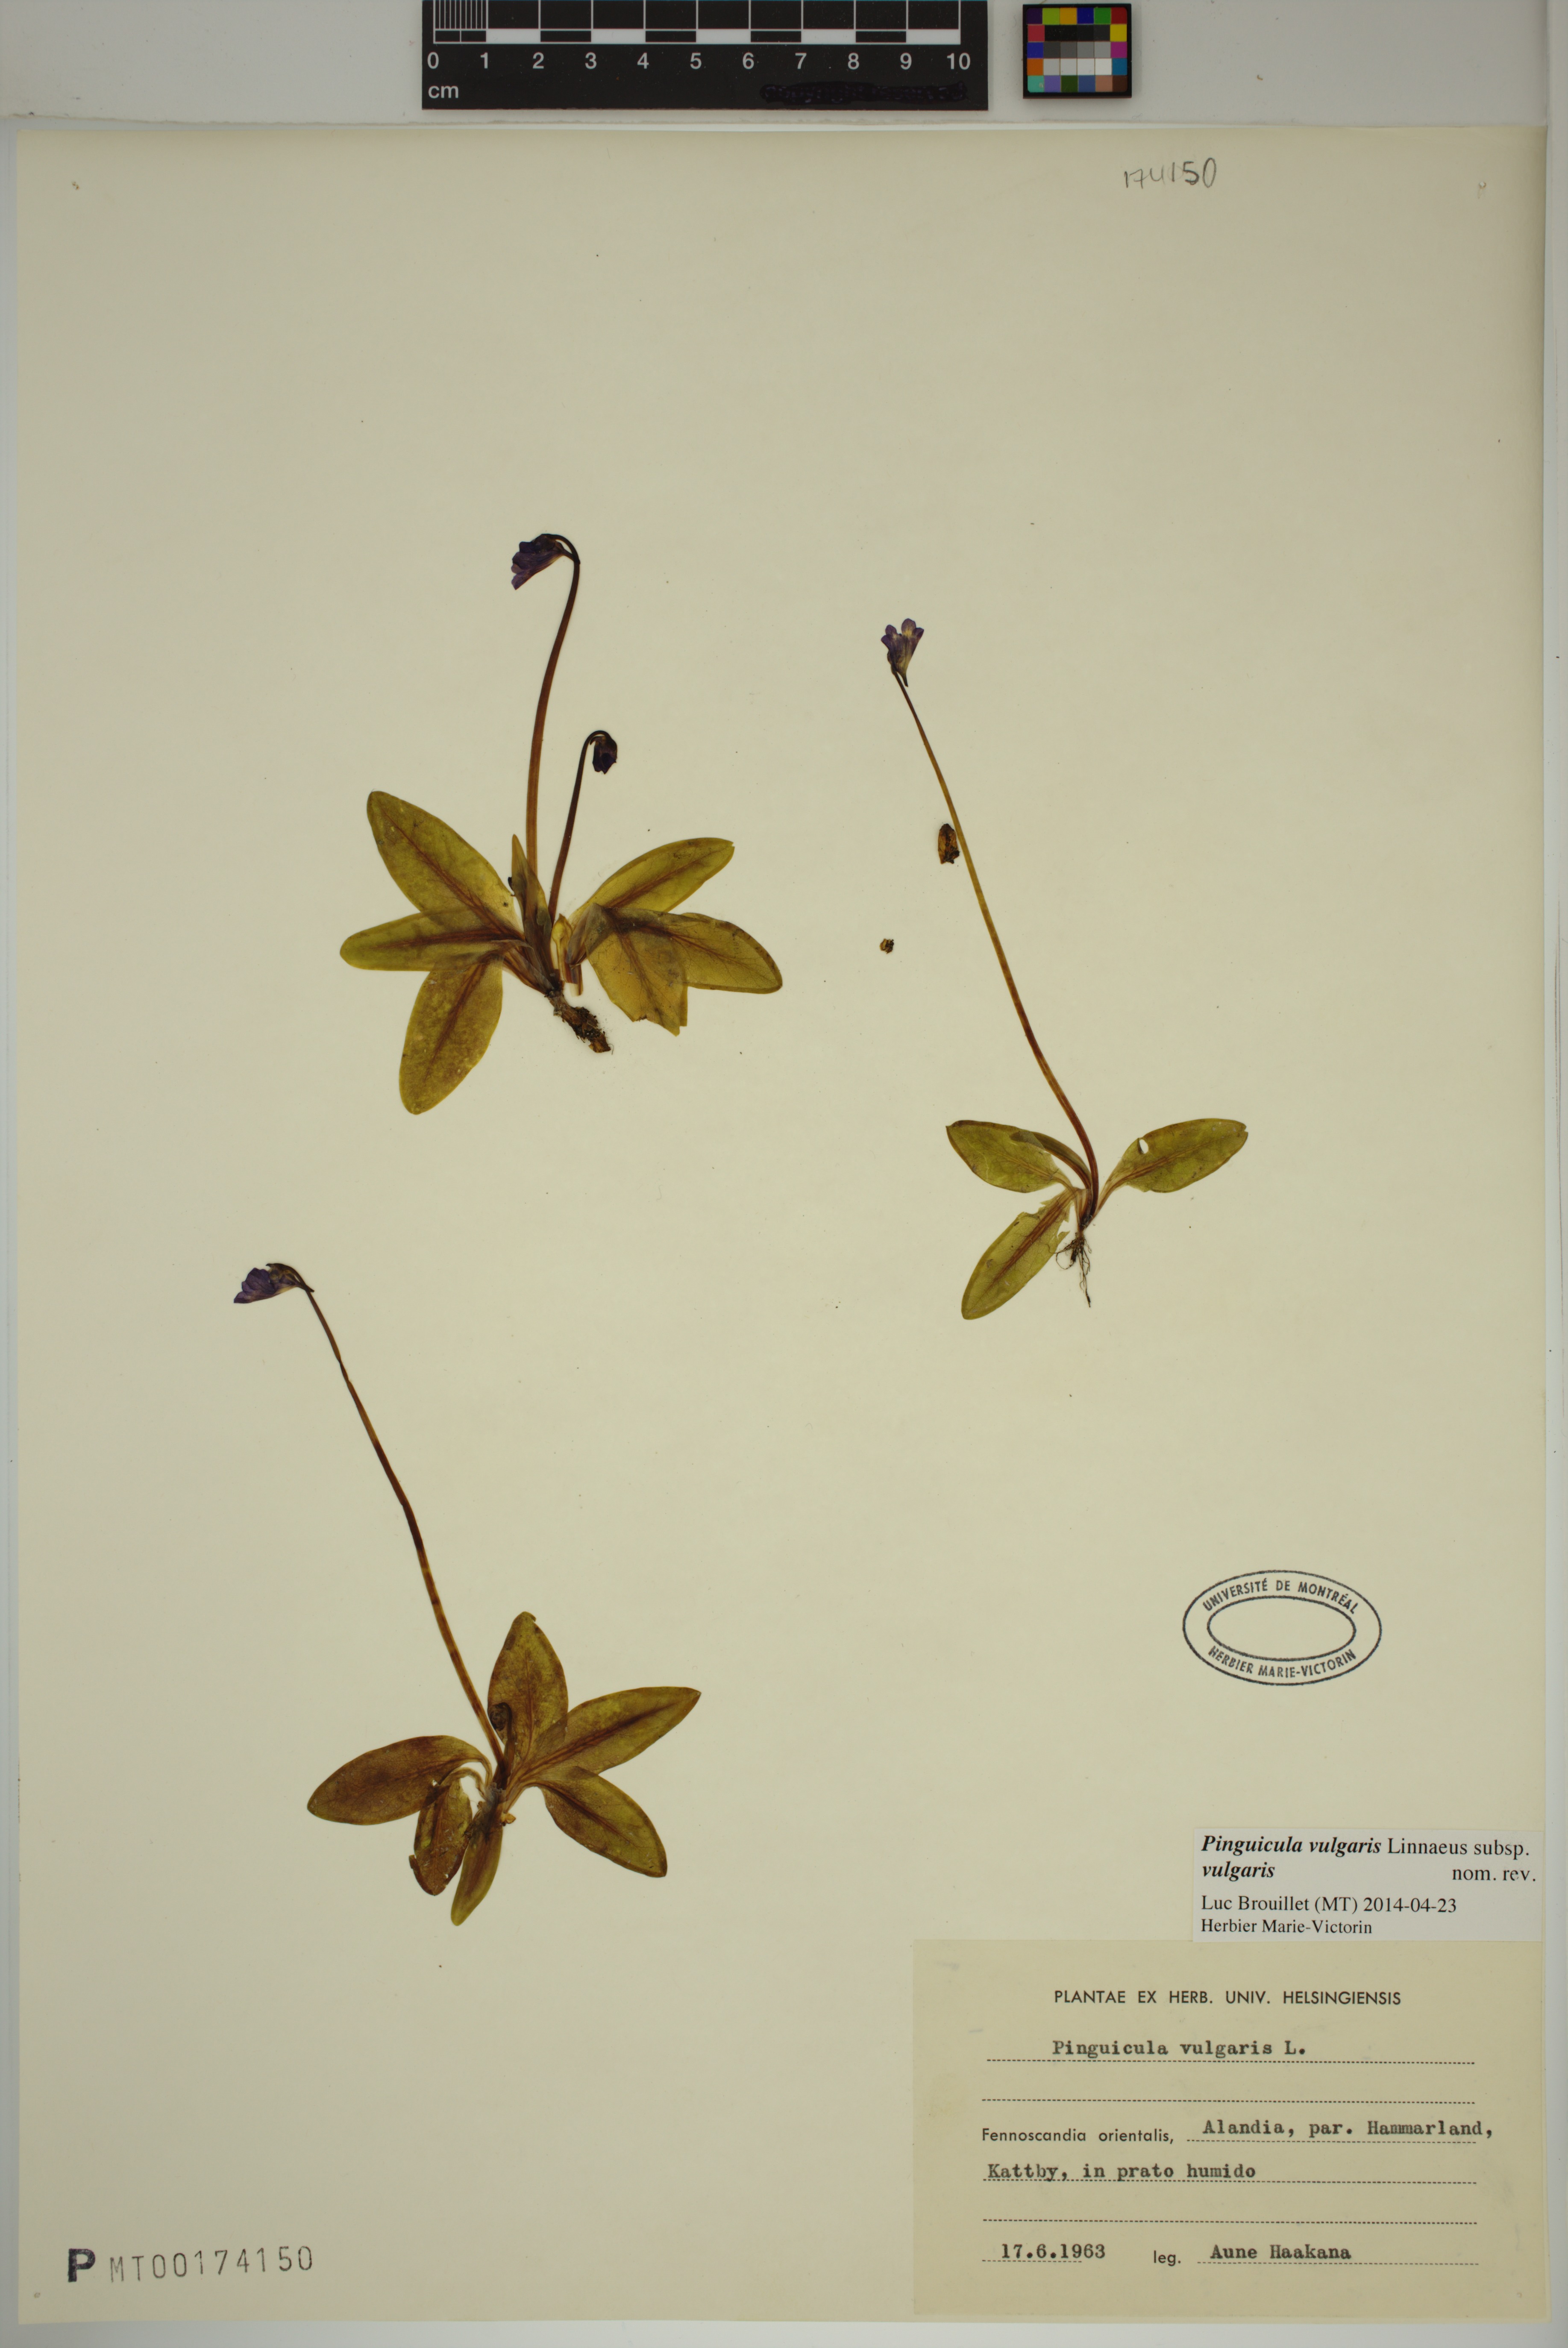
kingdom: Plantae
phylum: Tracheophyta
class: Magnoliopsida
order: Lamiales
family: Lentibulariaceae
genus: Pinguicula
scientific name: Pinguicula vulgaris
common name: Common butterwort
